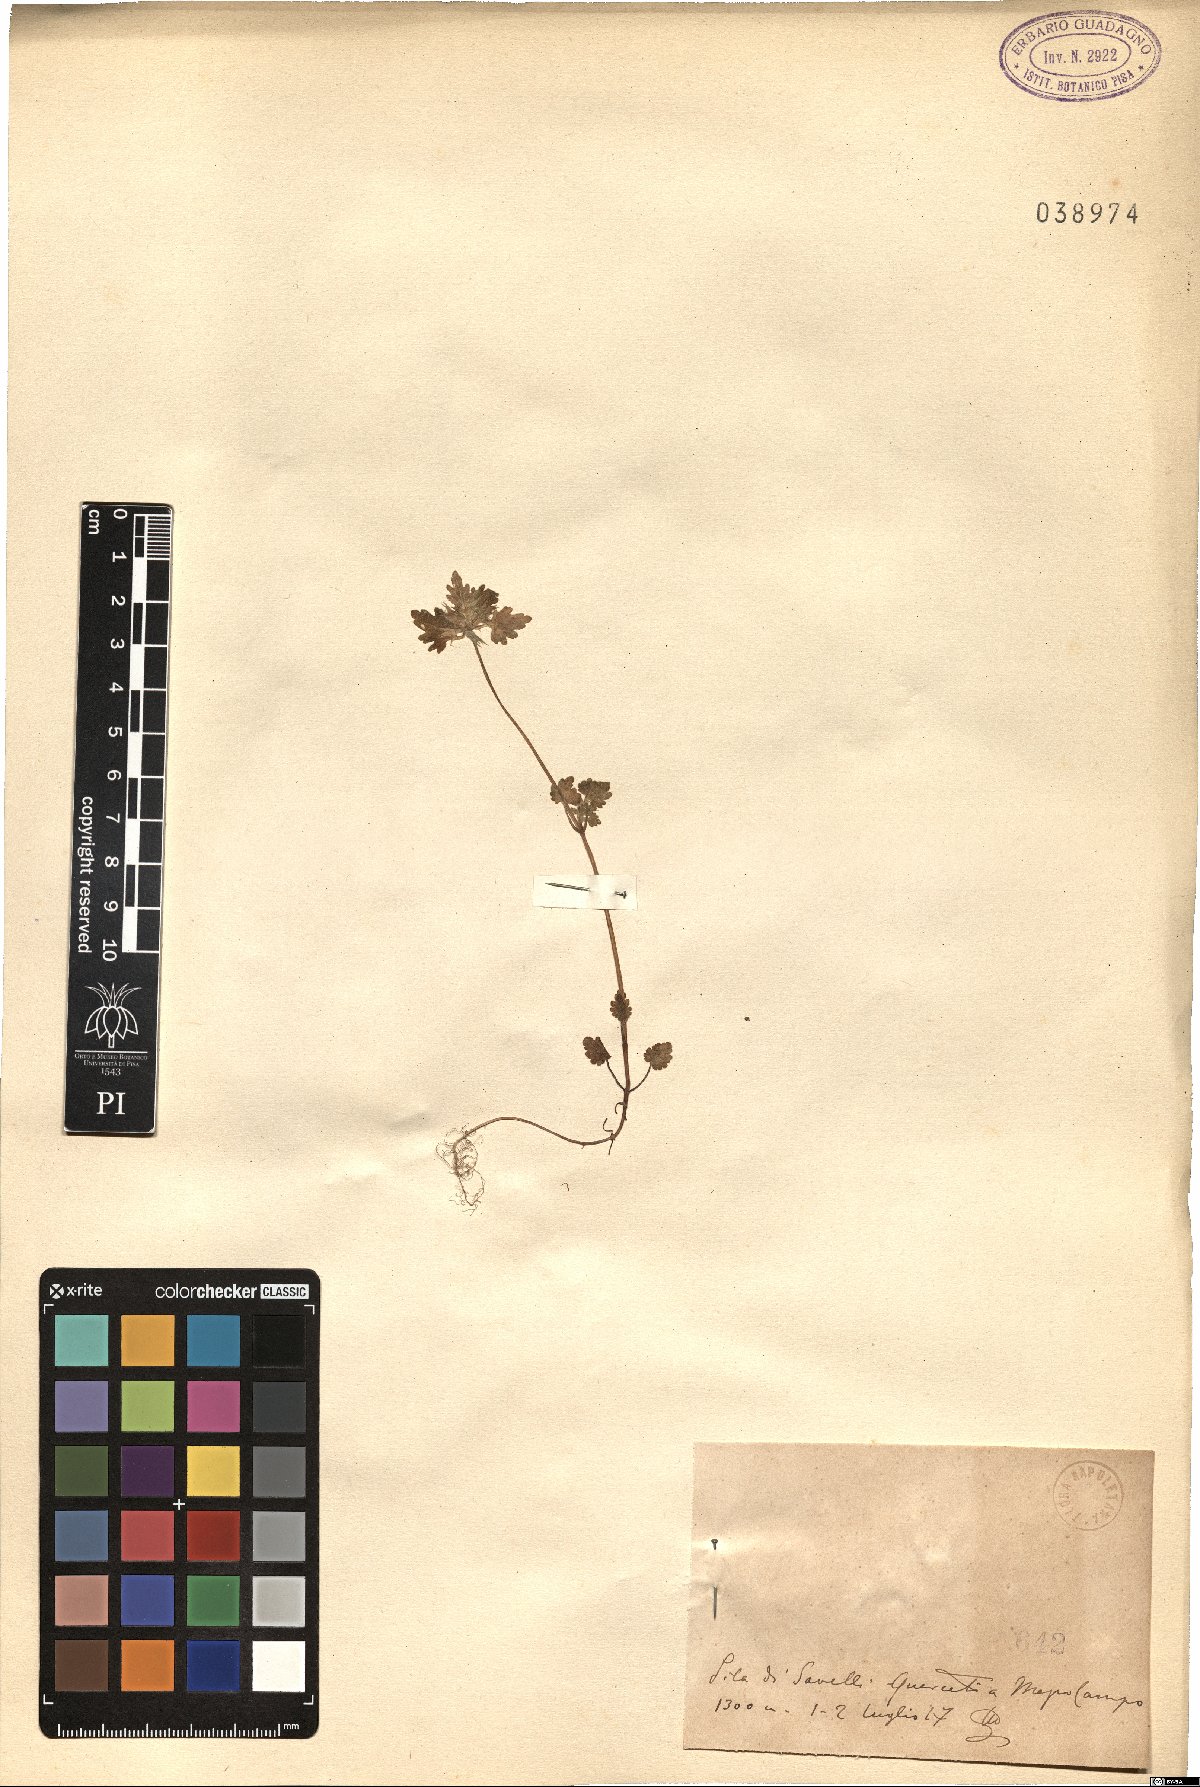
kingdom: Plantae
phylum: Tracheophyta
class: Magnoliopsida
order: Lamiales
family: Lamiaceae
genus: Lamium
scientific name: Lamium
